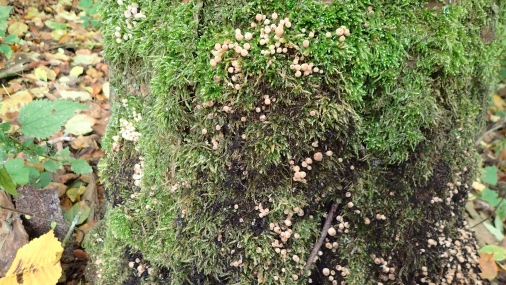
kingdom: Fungi
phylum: Basidiomycota
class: Agaricomycetes
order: Agaricales
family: Psathyrellaceae
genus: Coprinellus
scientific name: Coprinellus disseminatus
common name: bredsået blækhat
